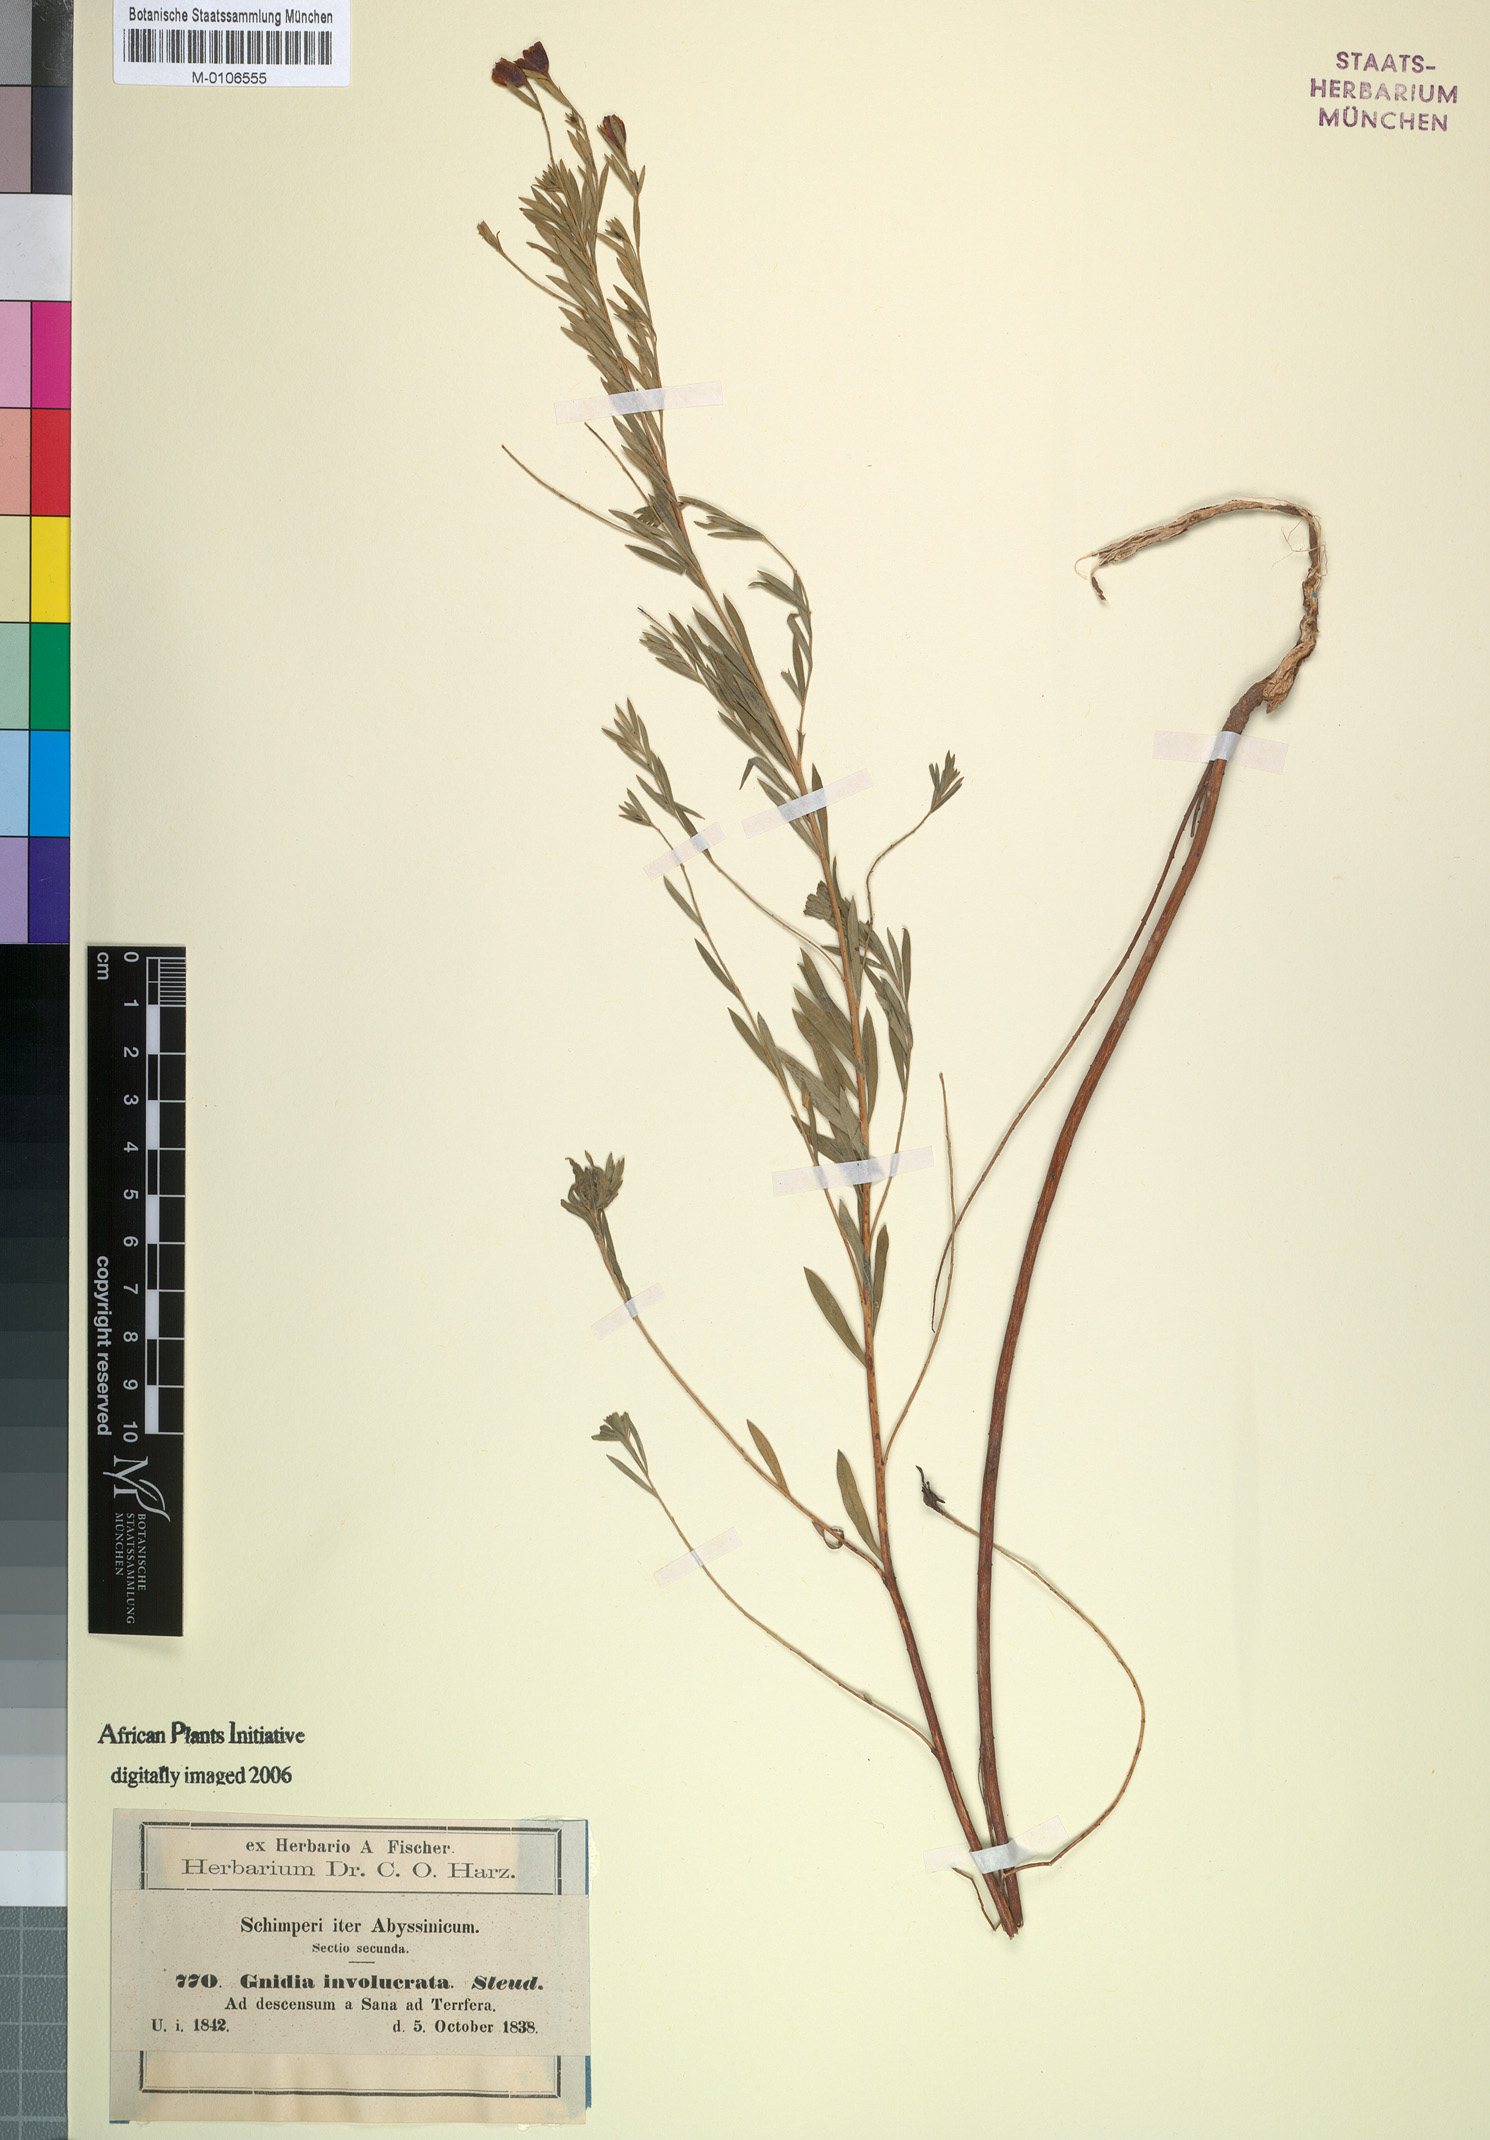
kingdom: Plantae
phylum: Tracheophyta
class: Magnoliopsida
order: Malvales
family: Thymelaeaceae
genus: Gnidia
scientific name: Gnidia involucrata
